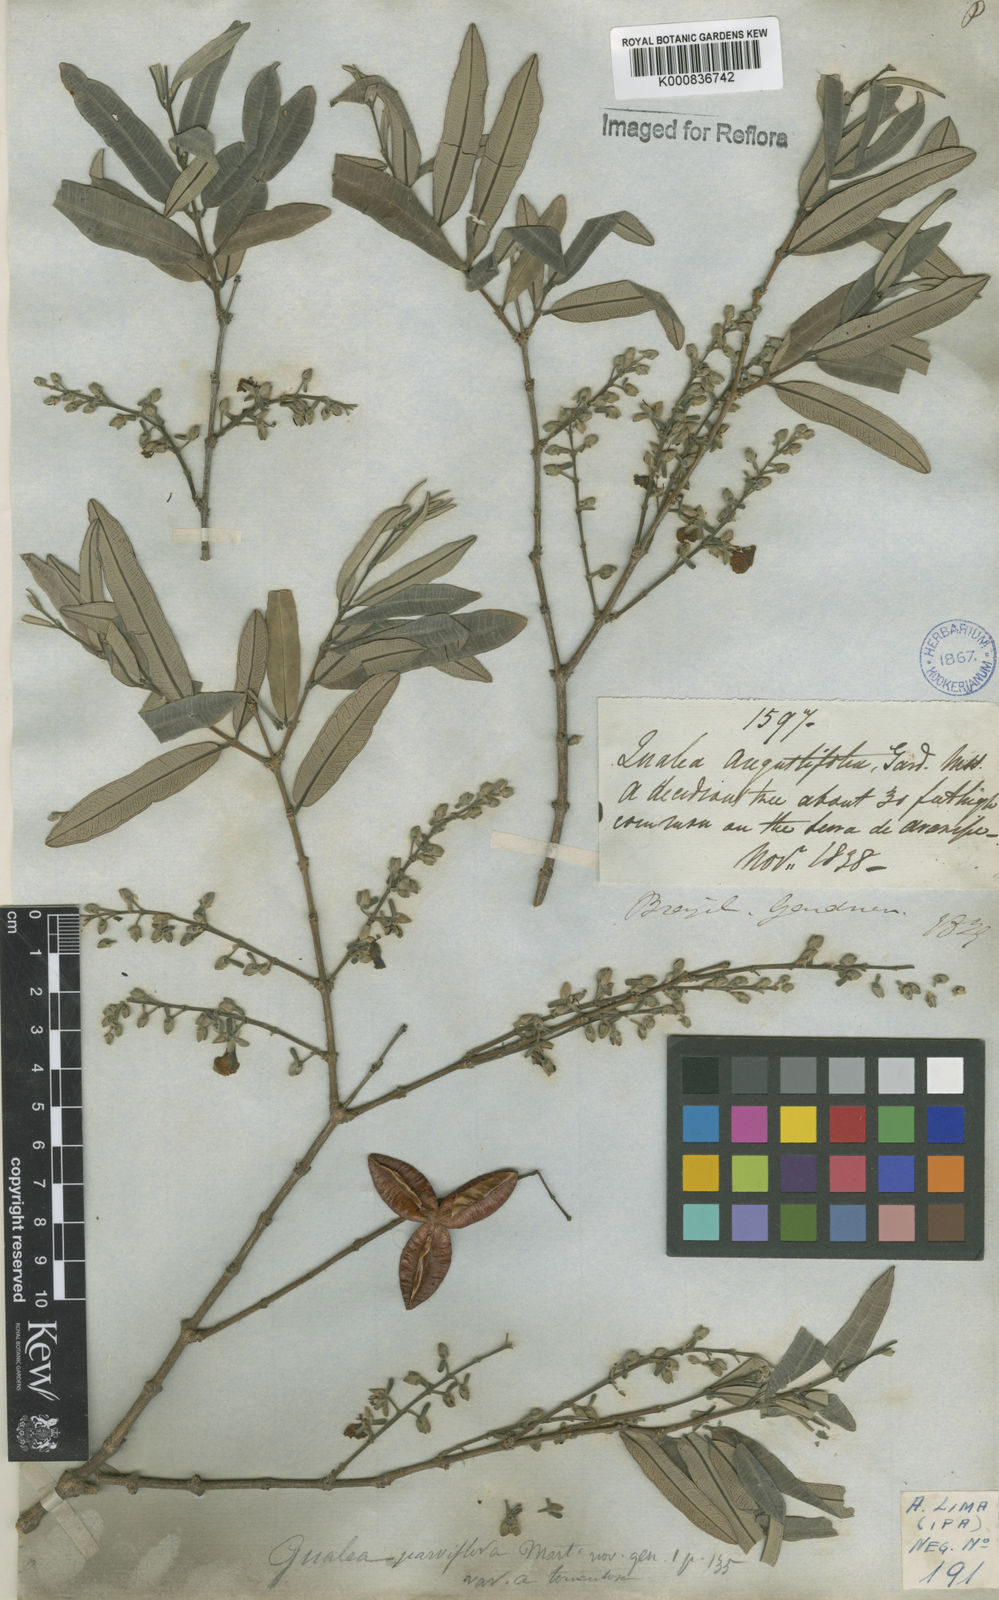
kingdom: Plantae
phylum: Tracheophyta
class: Magnoliopsida
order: Myrtales
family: Vochysiaceae
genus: Qualea
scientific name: Qualea parviflora
